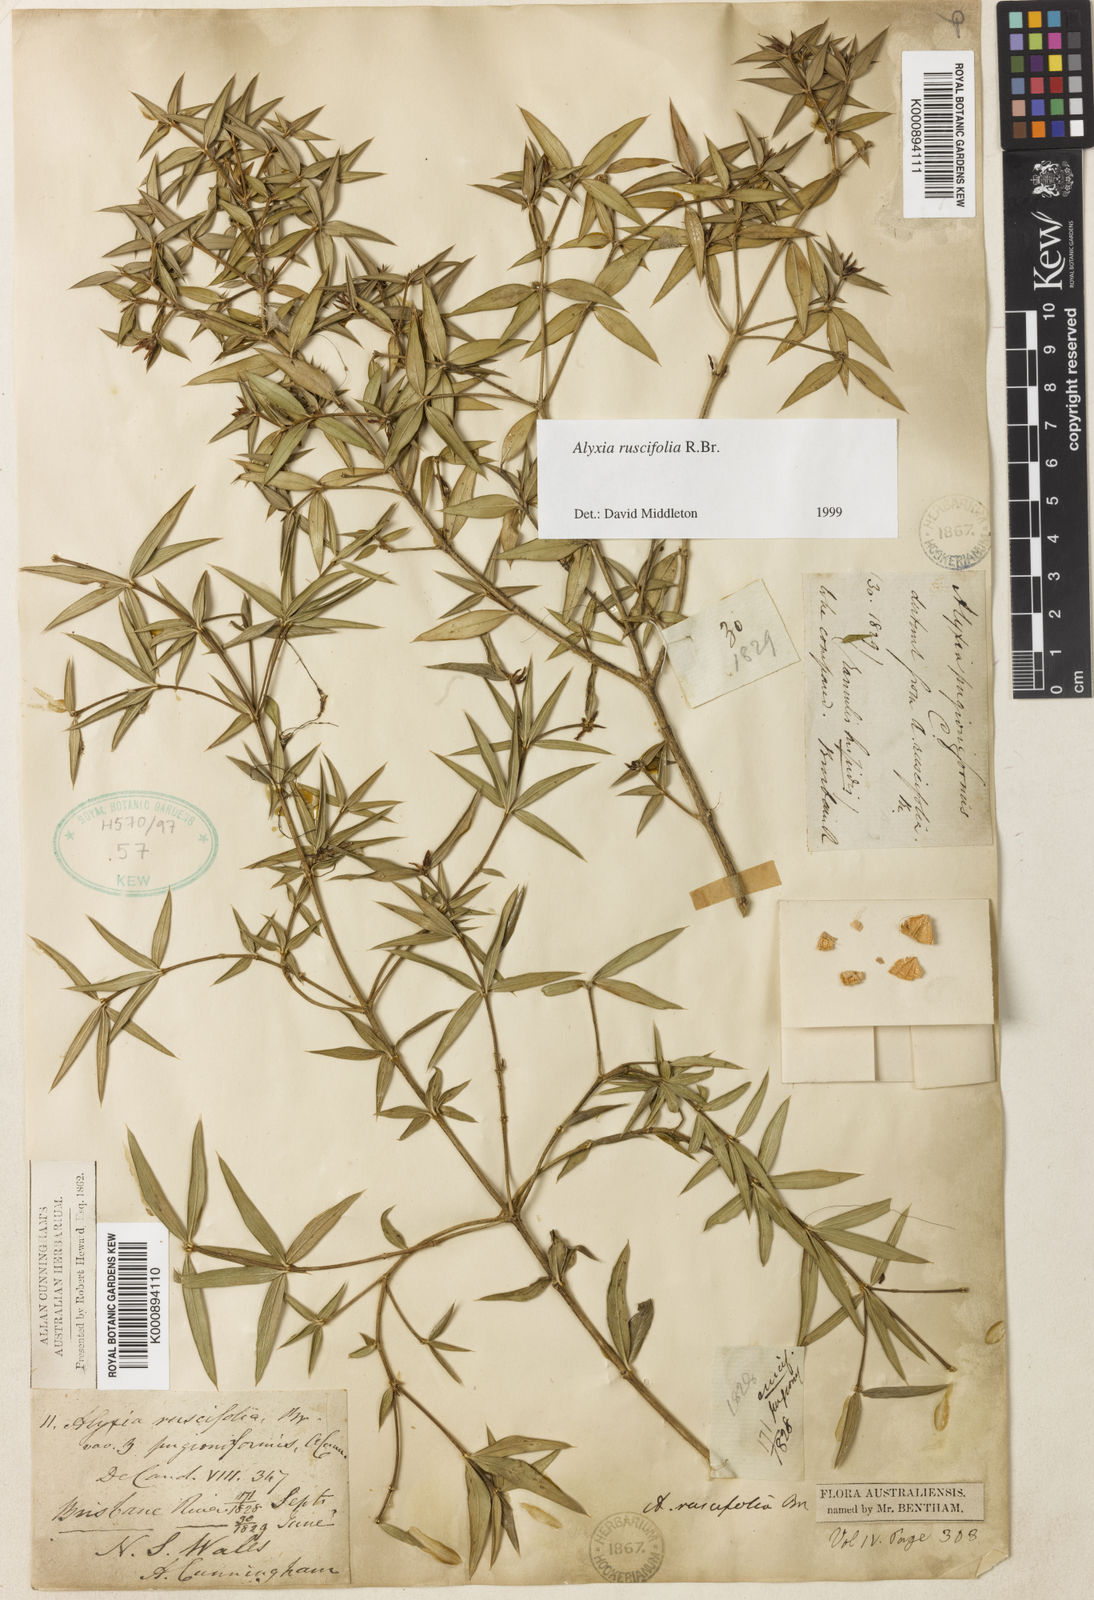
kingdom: Plantae
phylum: Tracheophyta
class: Magnoliopsida
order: Gentianales
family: Apocynaceae
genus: Alyxia
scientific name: Alyxia ruscifolia
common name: Chainfruit
